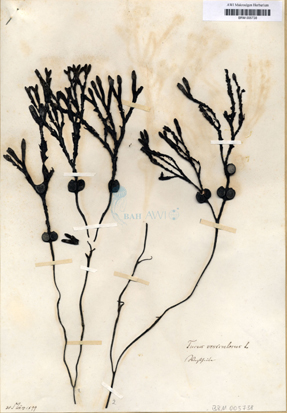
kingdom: Chromista
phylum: Ochrophyta
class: Phaeophyceae
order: Fucales
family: Fucaceae
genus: Fucus
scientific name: Fucus vesiculosus
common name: Bladder wrack
